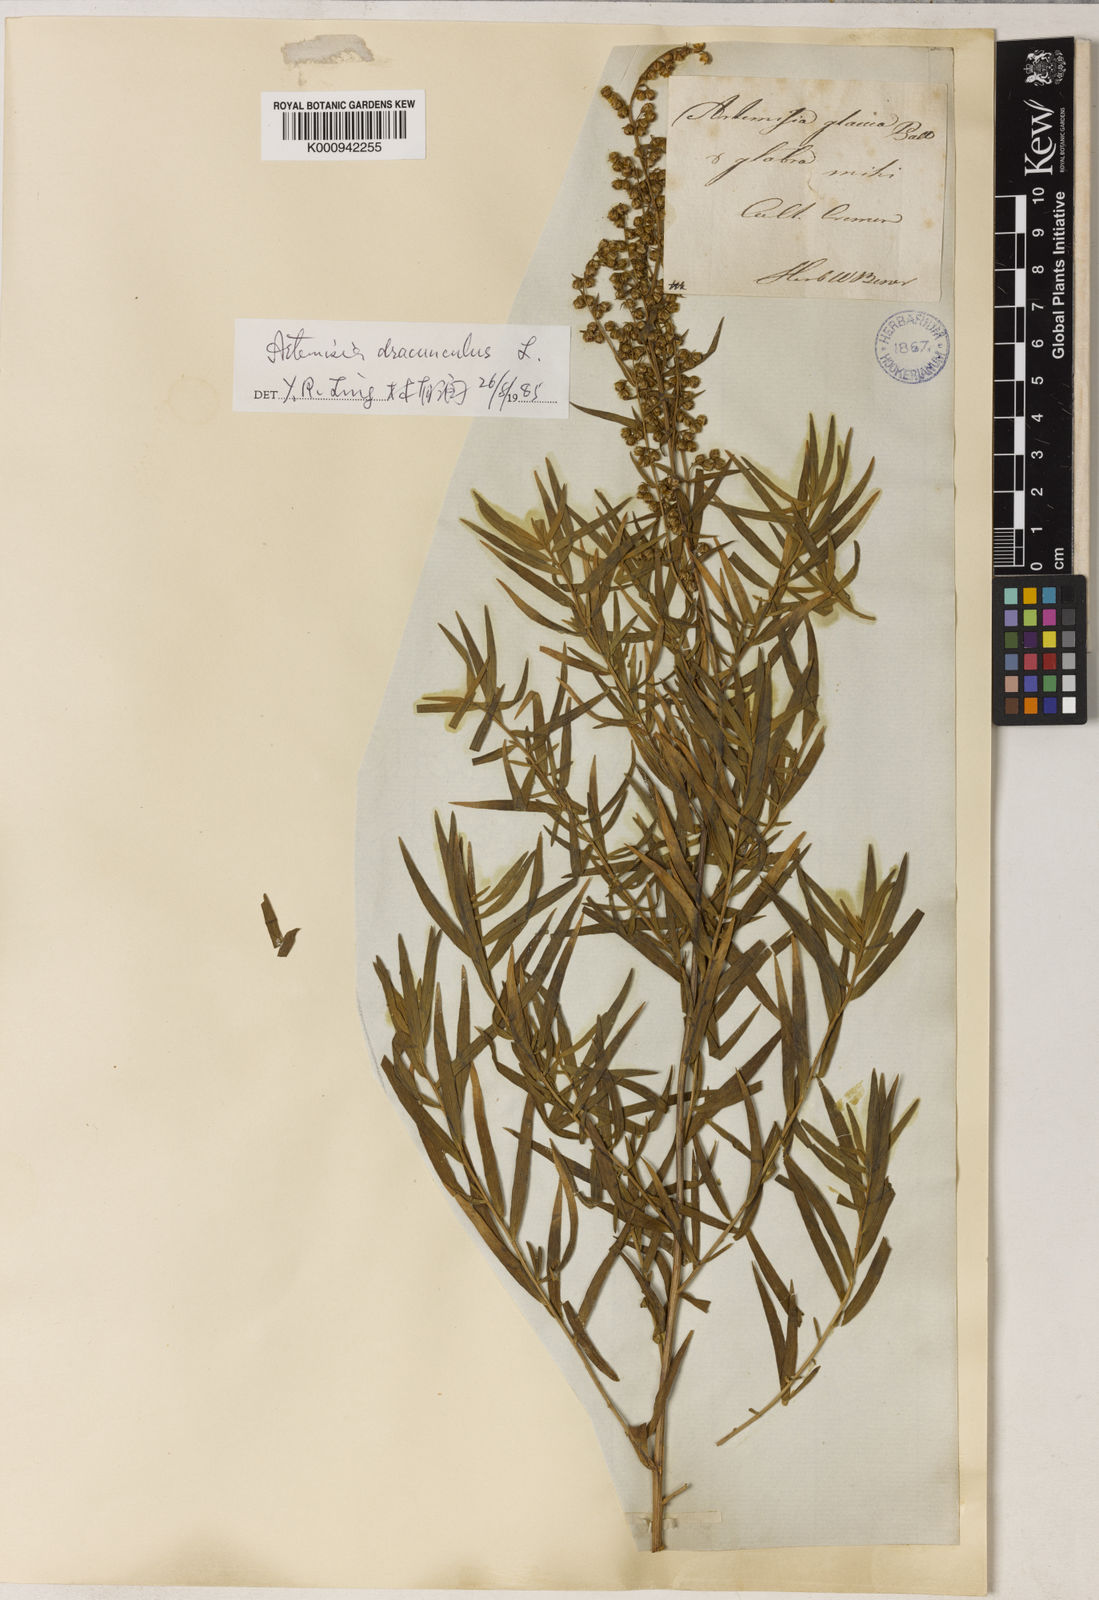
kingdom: Plantae
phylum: Tracheophyta
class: Magnoliopsida
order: Asterales
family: Asteraceae
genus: Artemisia
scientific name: Artemisia dracunculus
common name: Tarragon
